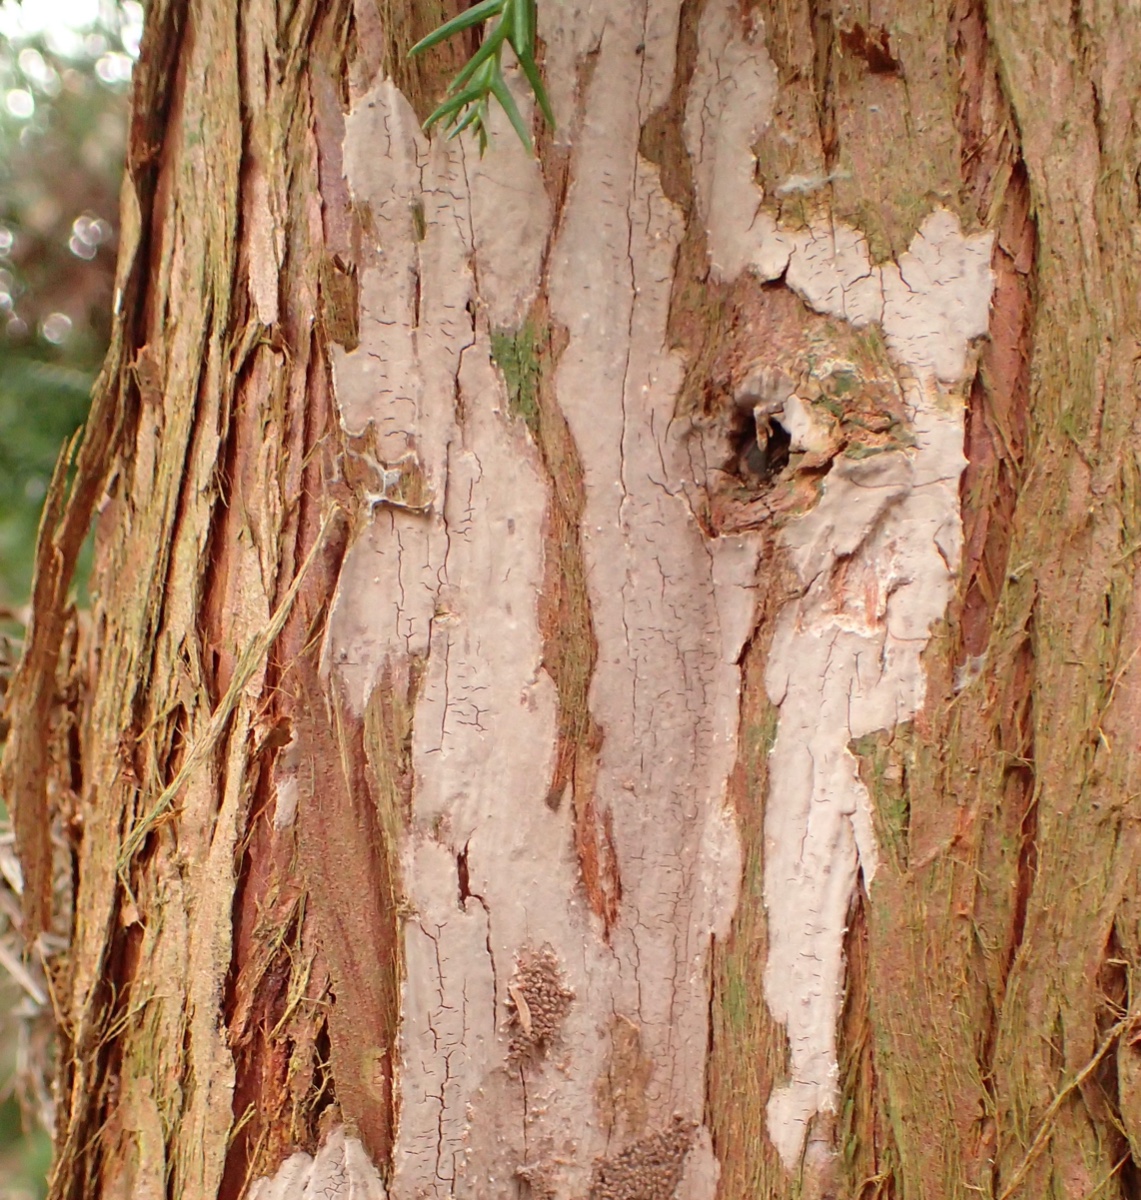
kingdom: Fungi
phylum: Basidiomycota
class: Agaricomycetes
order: Russulales
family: Echinodontiaceae
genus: Amylostereum
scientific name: Amylostereum laevigatum
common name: ene-lædersvamp
